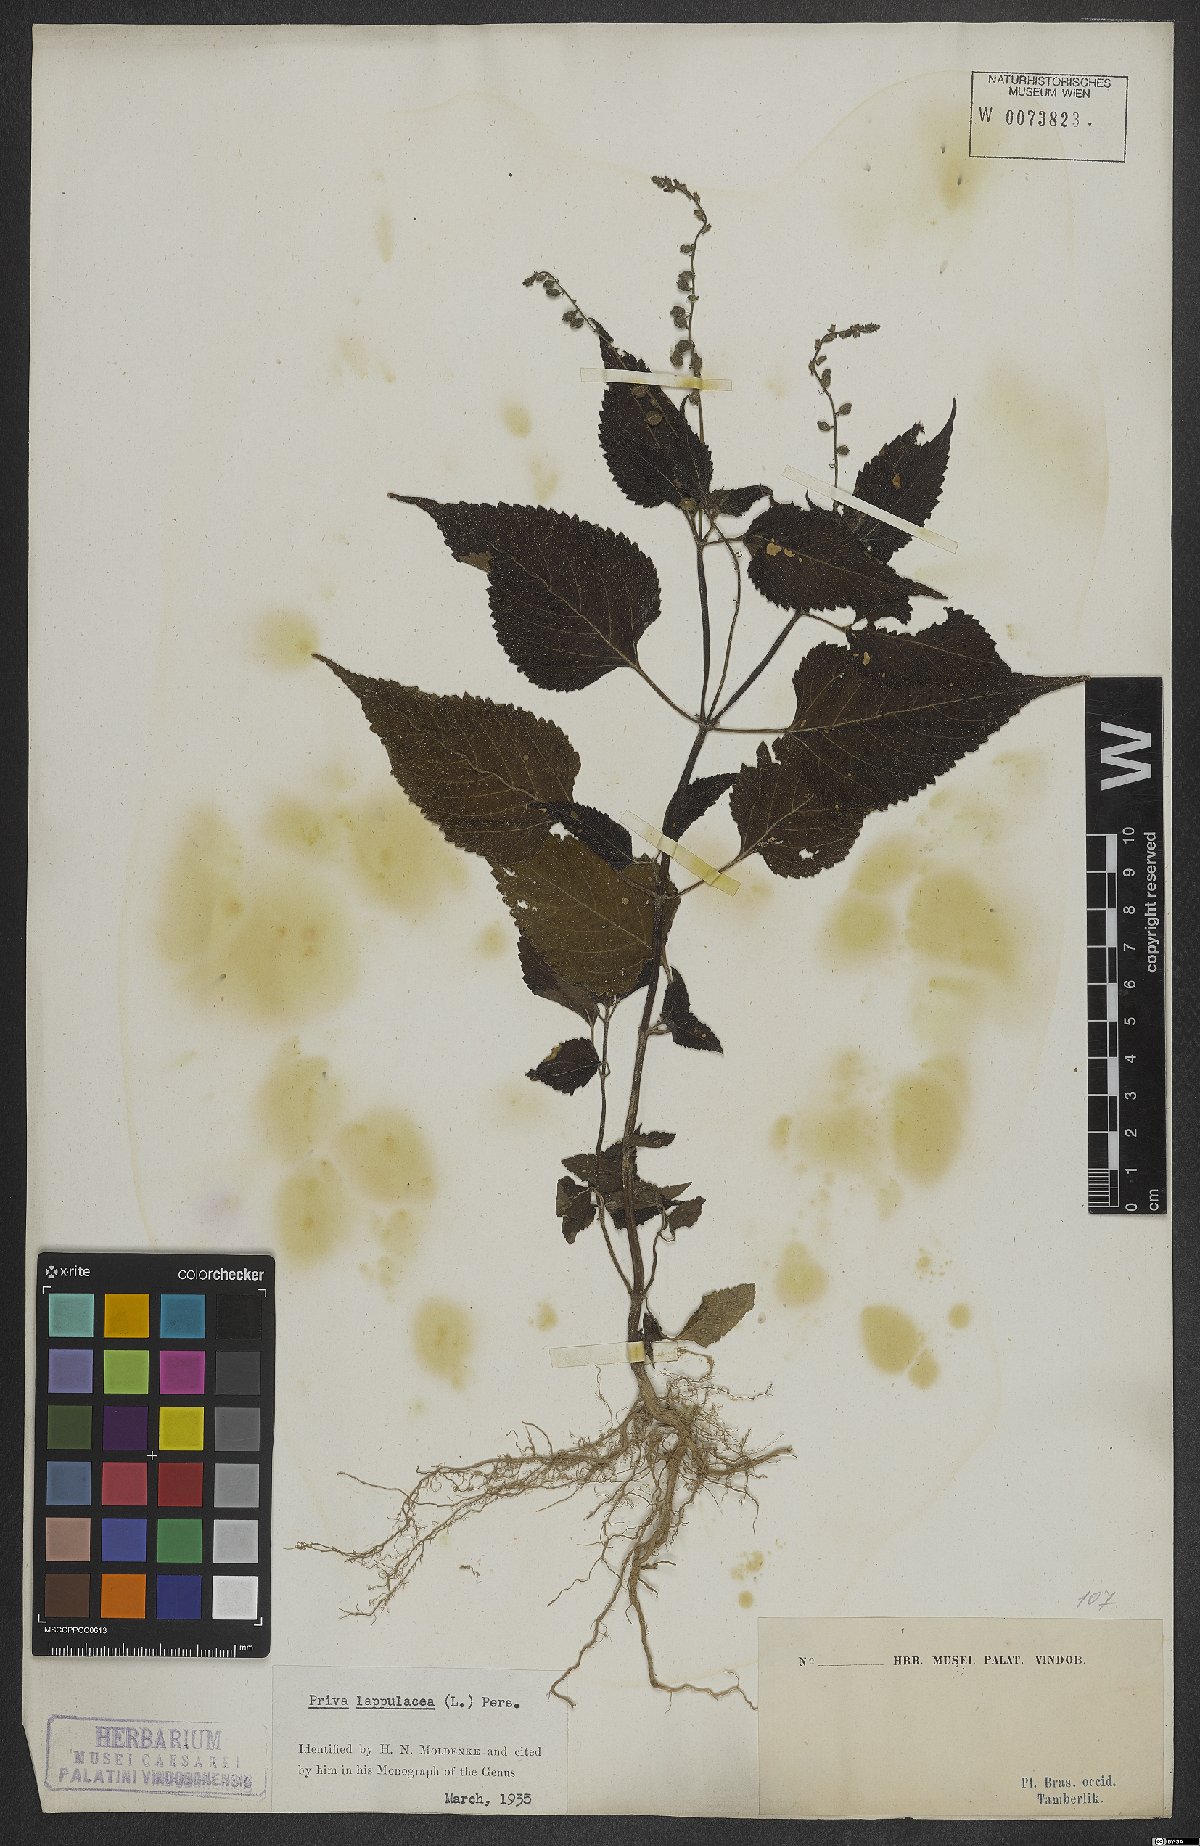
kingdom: Plantae
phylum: Tracheophyta
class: Magnoliopsida
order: Lamiales
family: Verbenaceae
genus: Priva
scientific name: Priva lappulacea
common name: Fasten-'pon-coat
